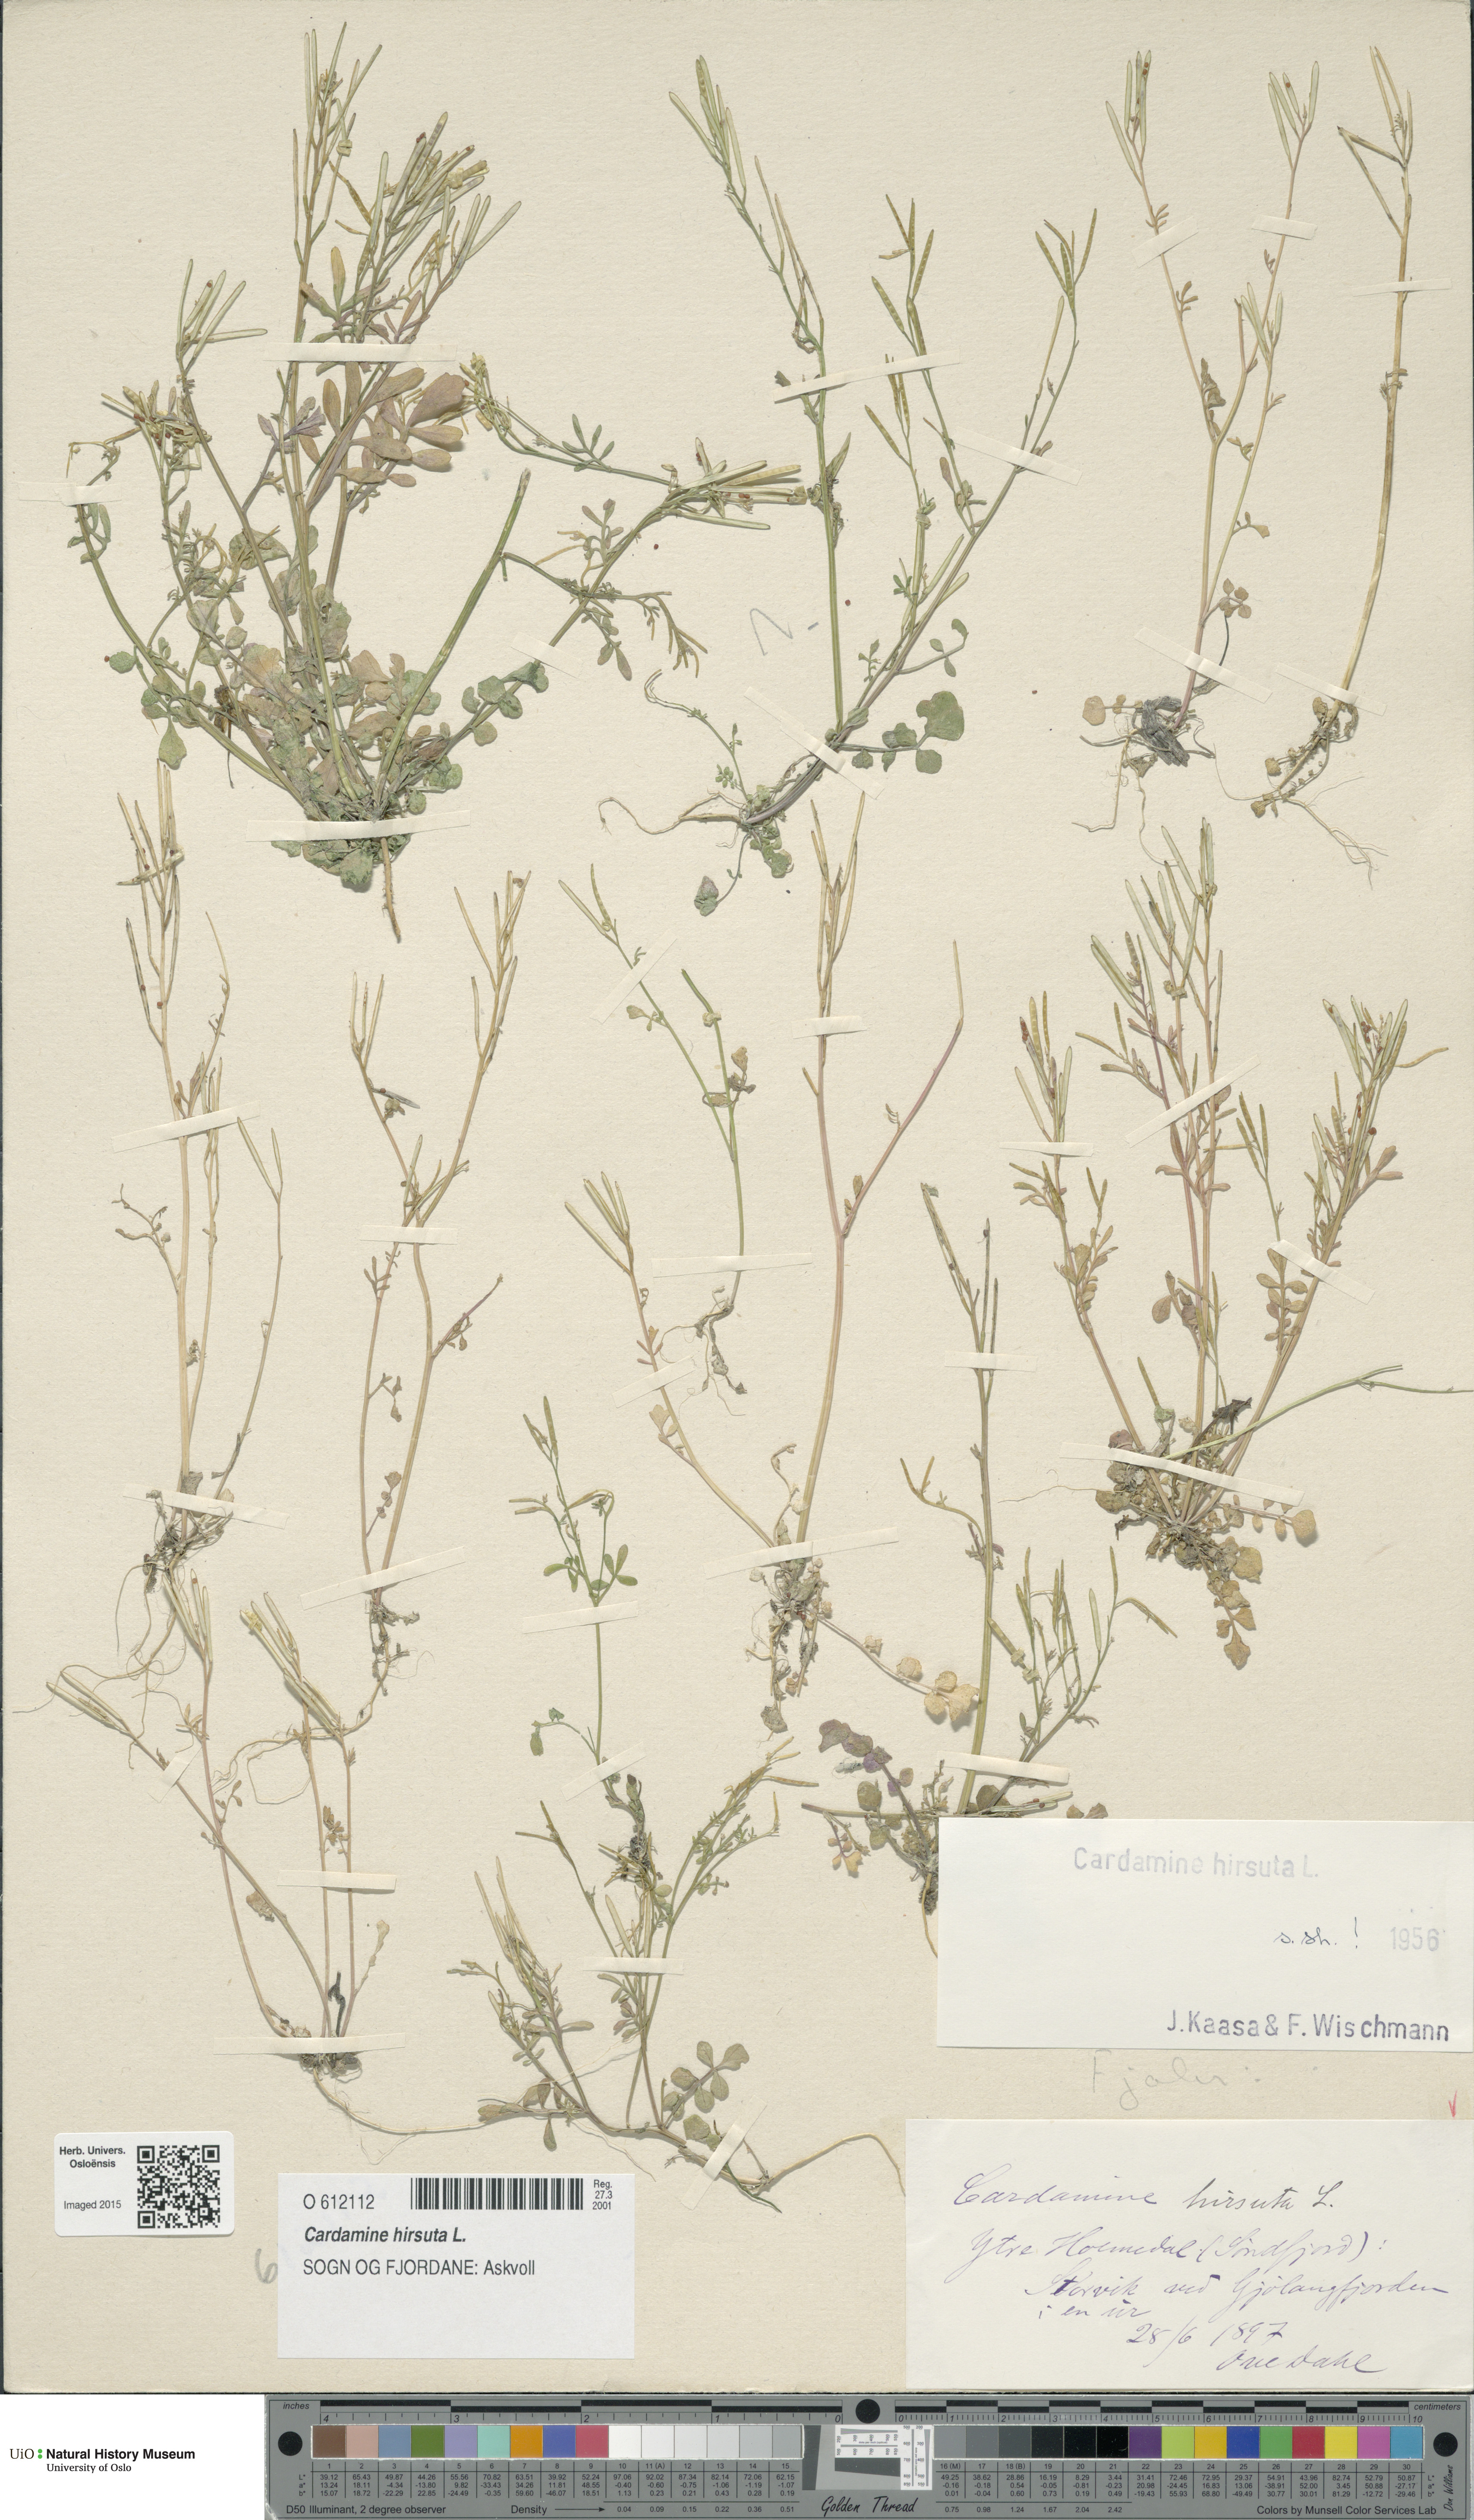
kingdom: Plantae
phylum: Tracheophyta
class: Magnoliopsida
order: Brassicales
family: Brassicaceae
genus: Cardamine
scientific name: Cardamine hirsuta
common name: Hairy bittercress
